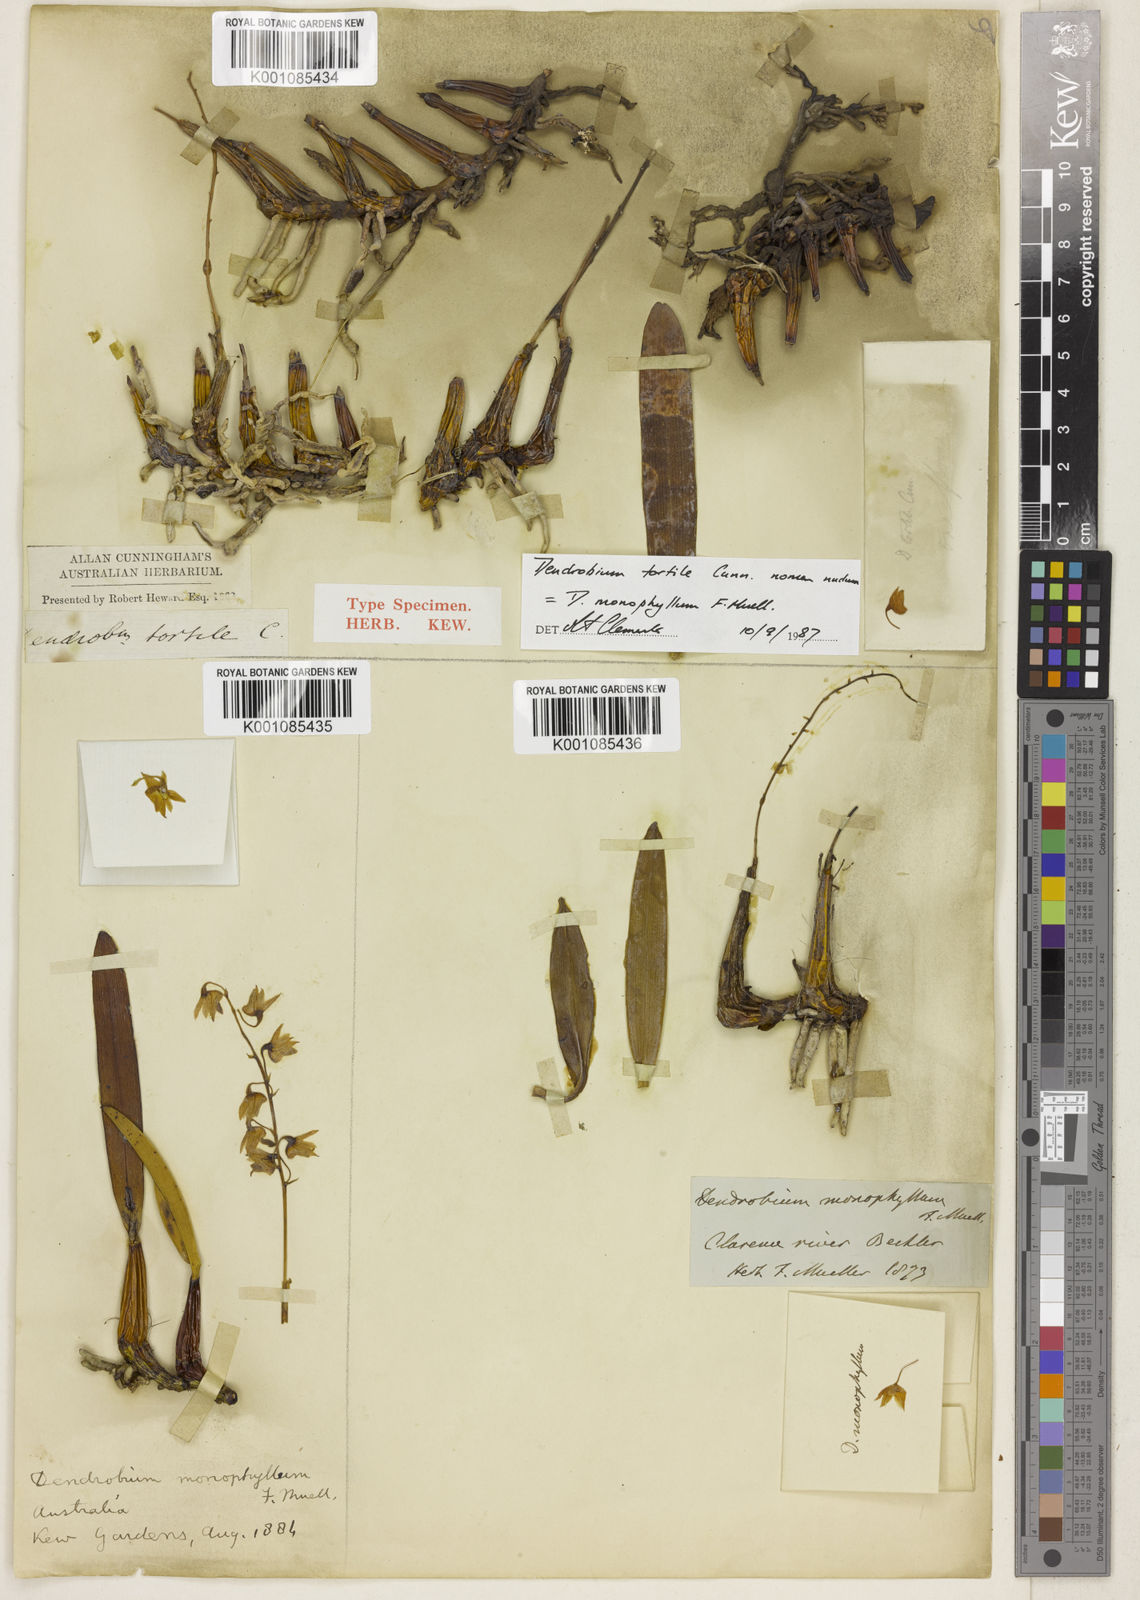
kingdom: Plantae
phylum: Tracheophyta
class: Liliopsida
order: Asparagales
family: Orchidaceae
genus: Dendrobium
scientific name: Dendrobium monophyllum
